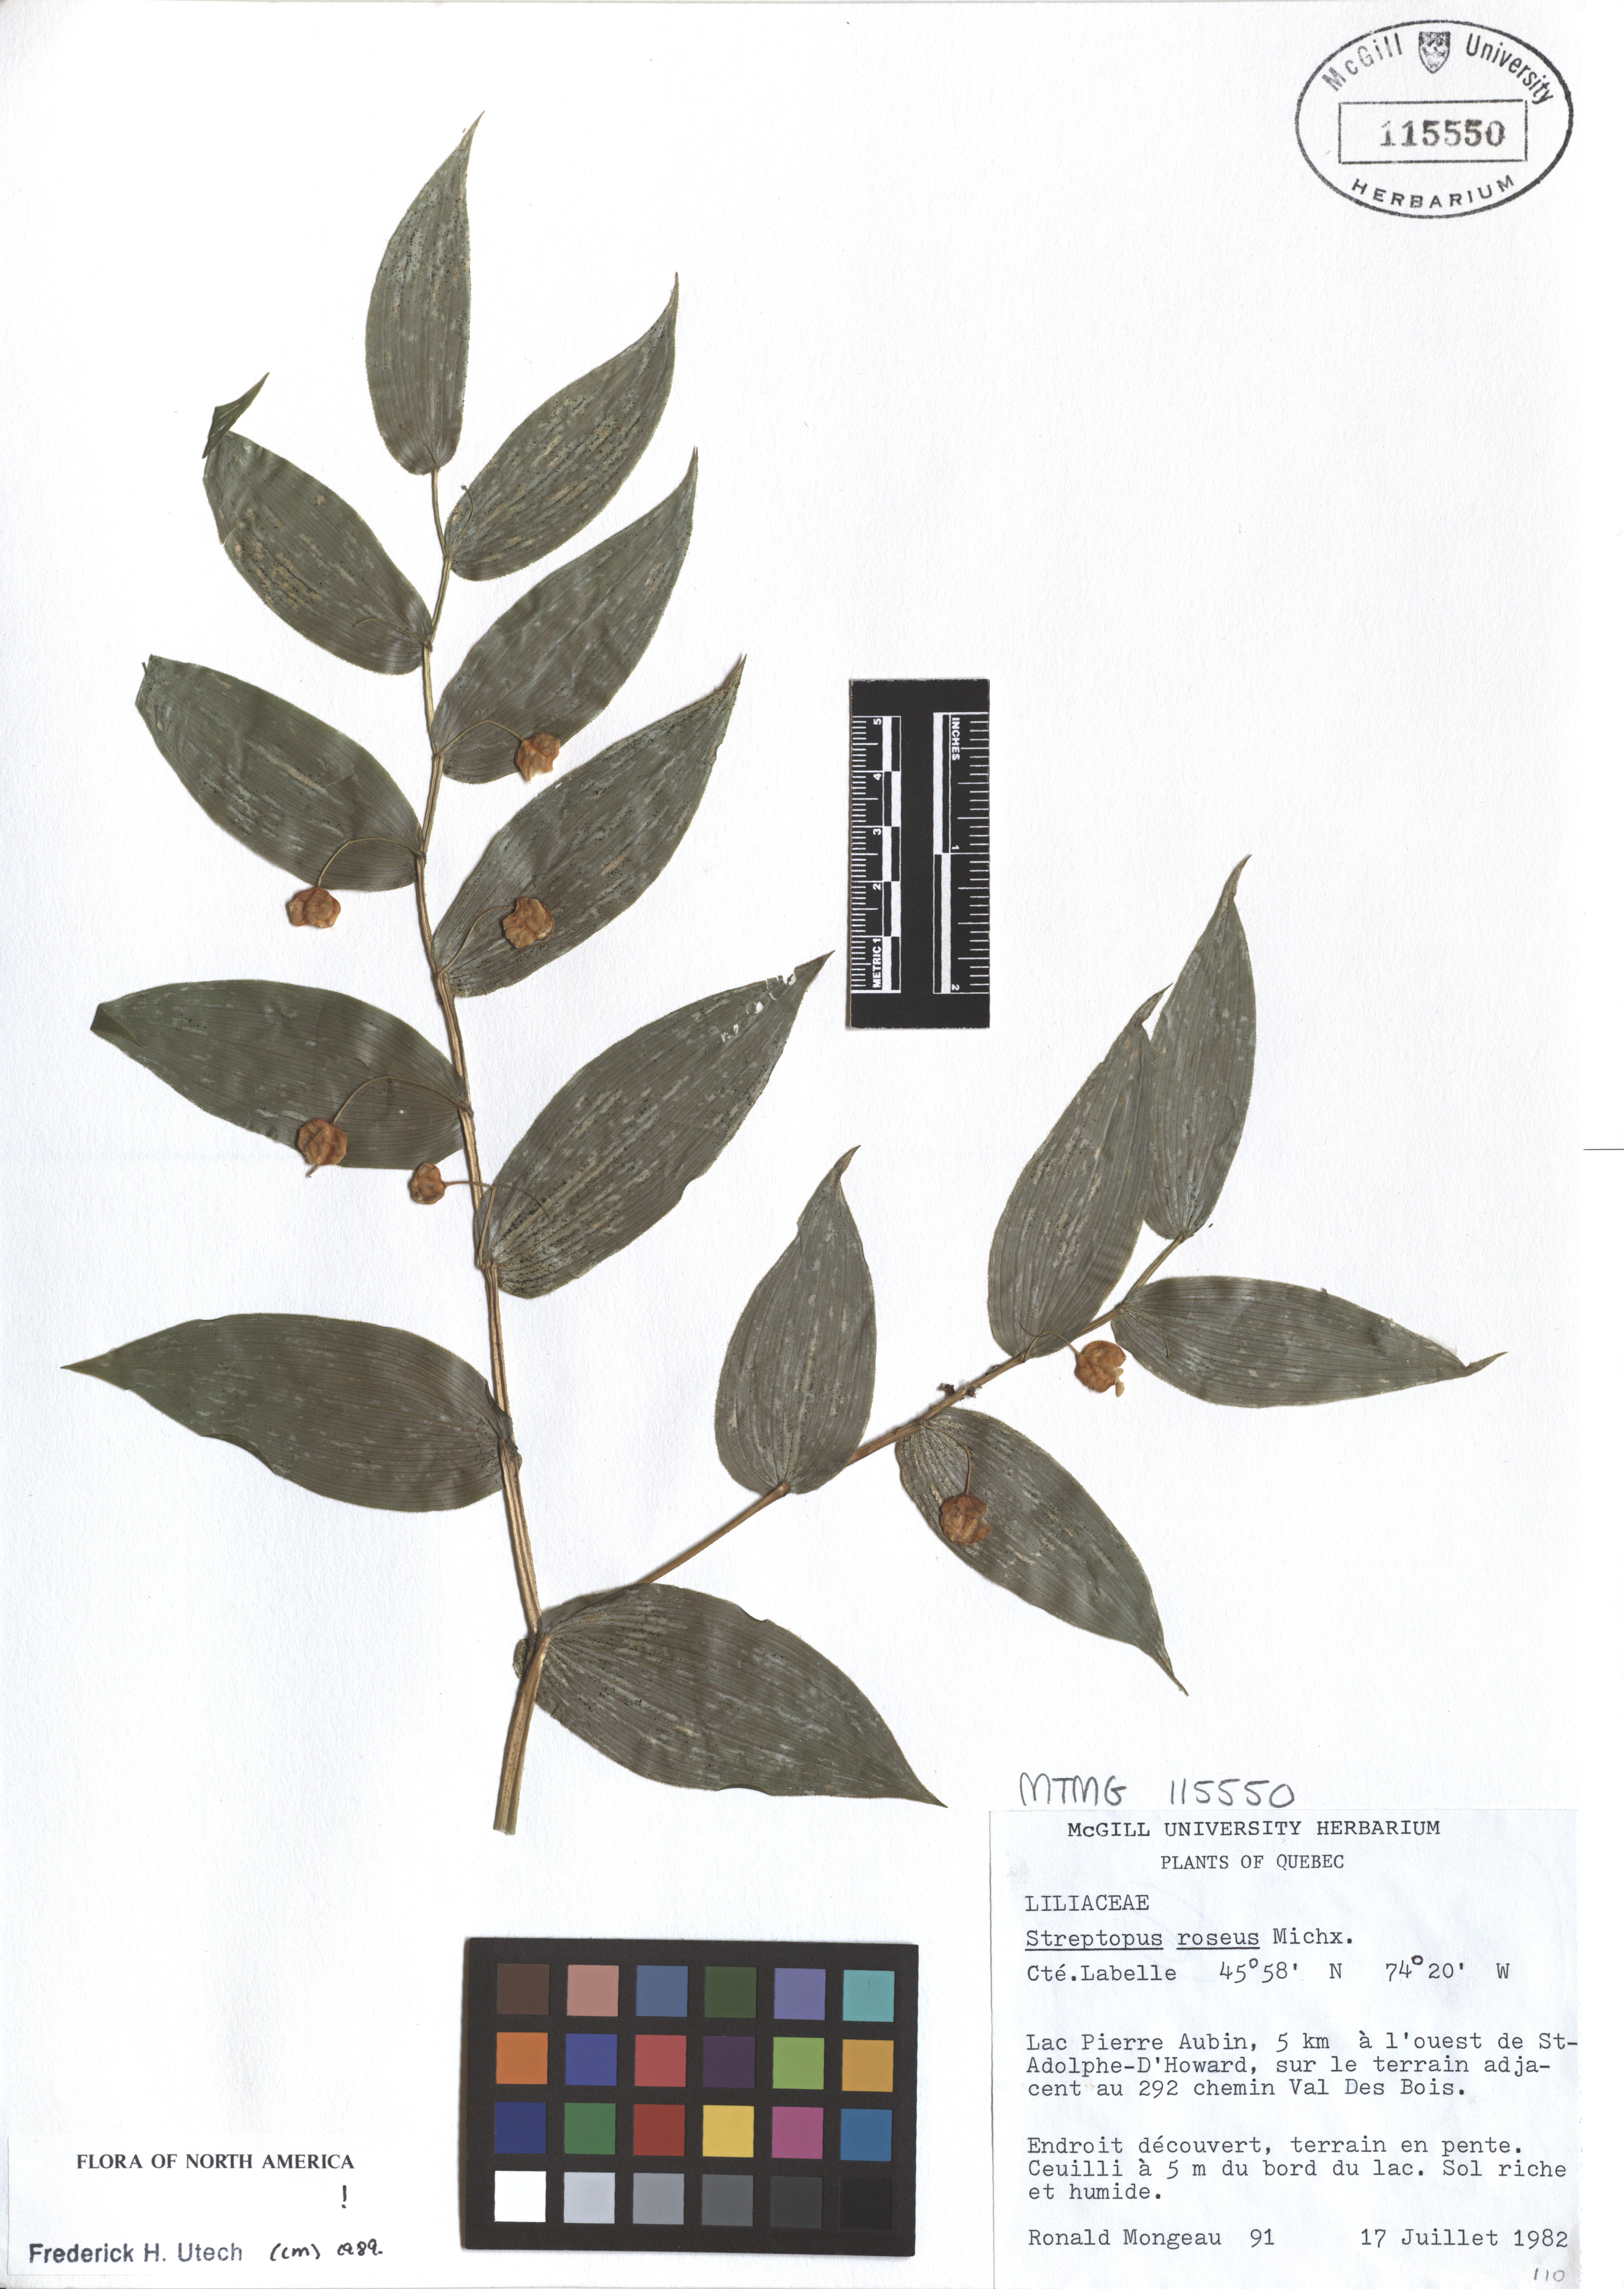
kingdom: Plantae
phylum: Tracheophyta
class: Liliopsida
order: Liliales
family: Liliaceae
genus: Streptopus
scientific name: Streptopus lanceolatus
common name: Rose mandarin
